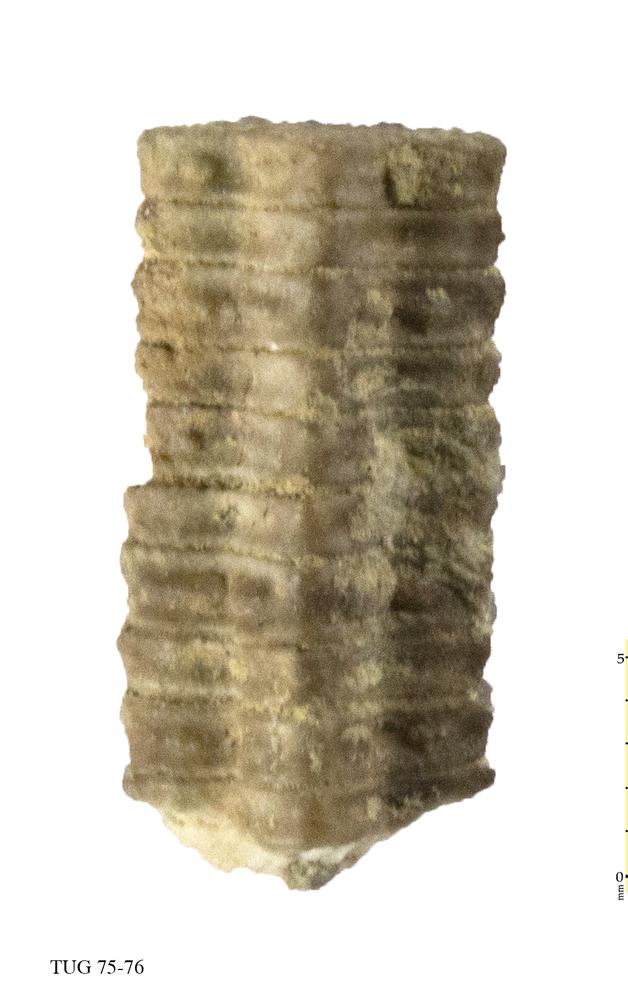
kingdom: Animalia
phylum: Echinodermata
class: Crinoidea
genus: Baltocrinus
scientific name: Baltocrinus
